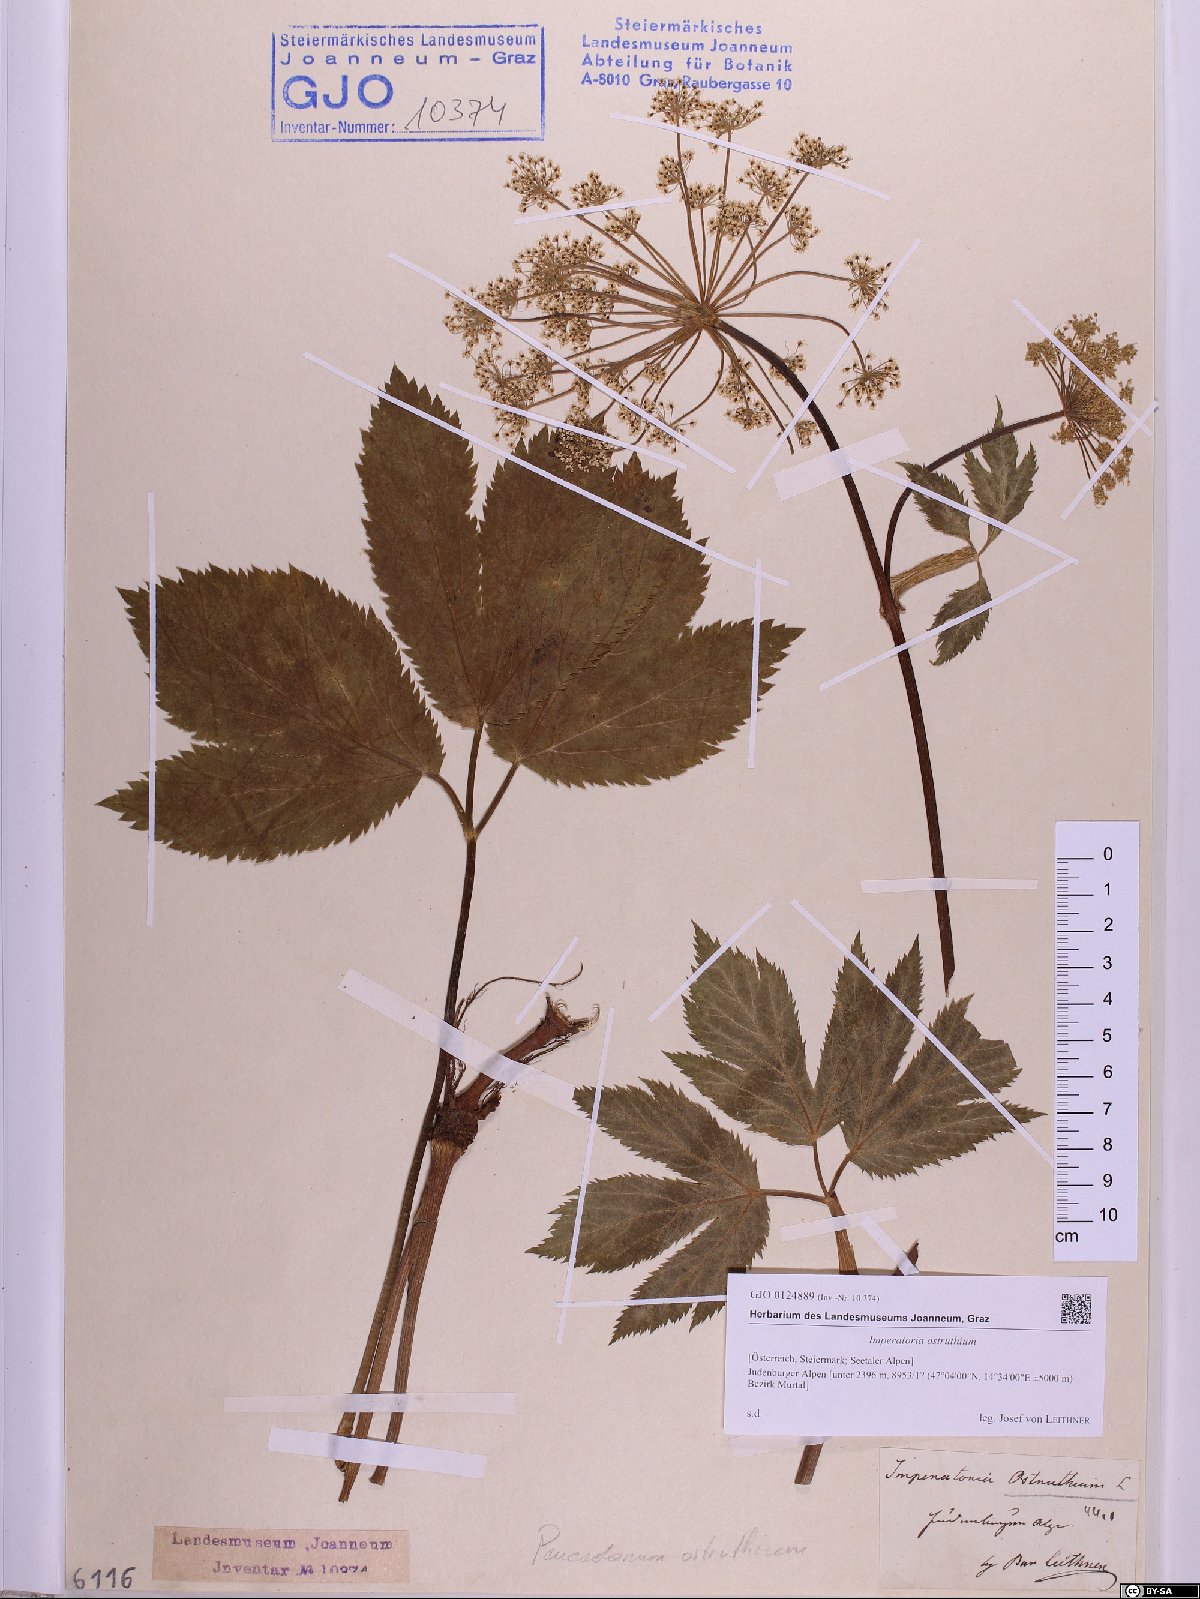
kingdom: Plantae
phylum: Tracheophyta
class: Magnoliopsida
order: Apiales
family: Apiaceae
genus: Imperatoria
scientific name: Imperatoria ostruthium
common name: Masterwort
